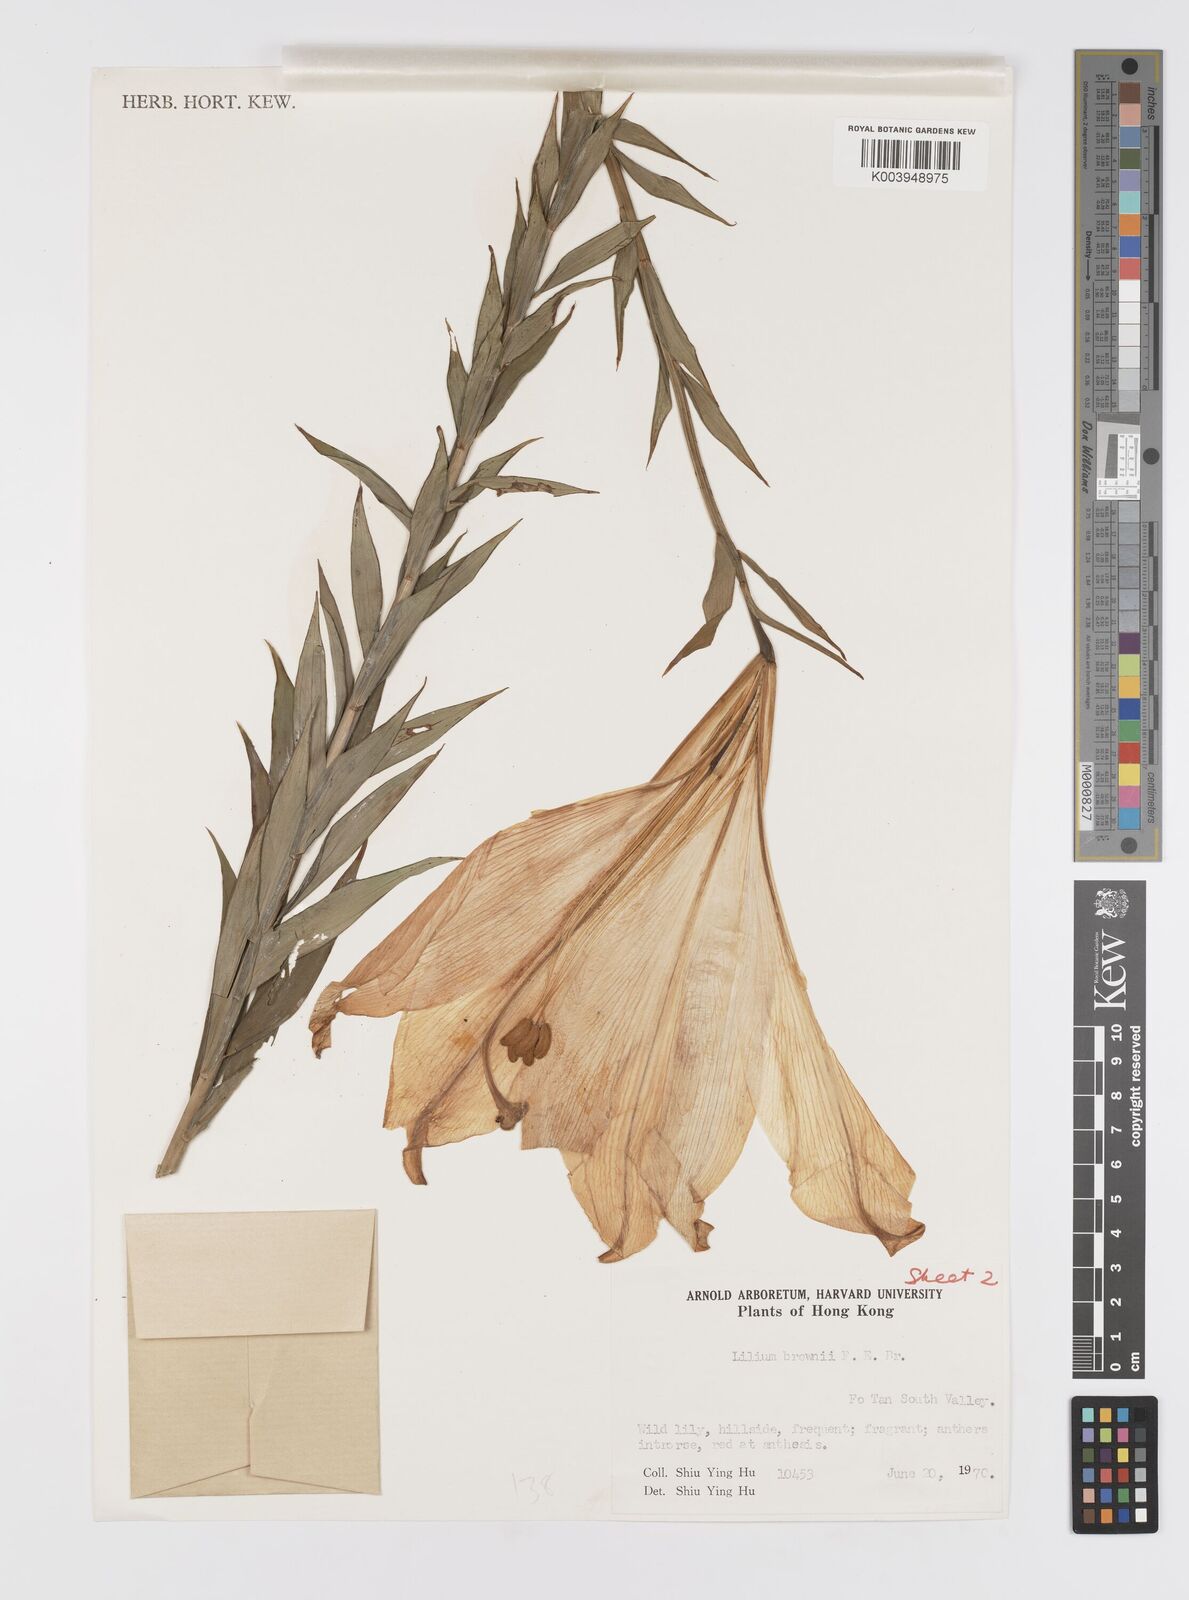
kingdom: Plantae
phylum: Tracheophyta
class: Liliopsida
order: Liliales
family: Liliaceae
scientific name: Liliaceae
